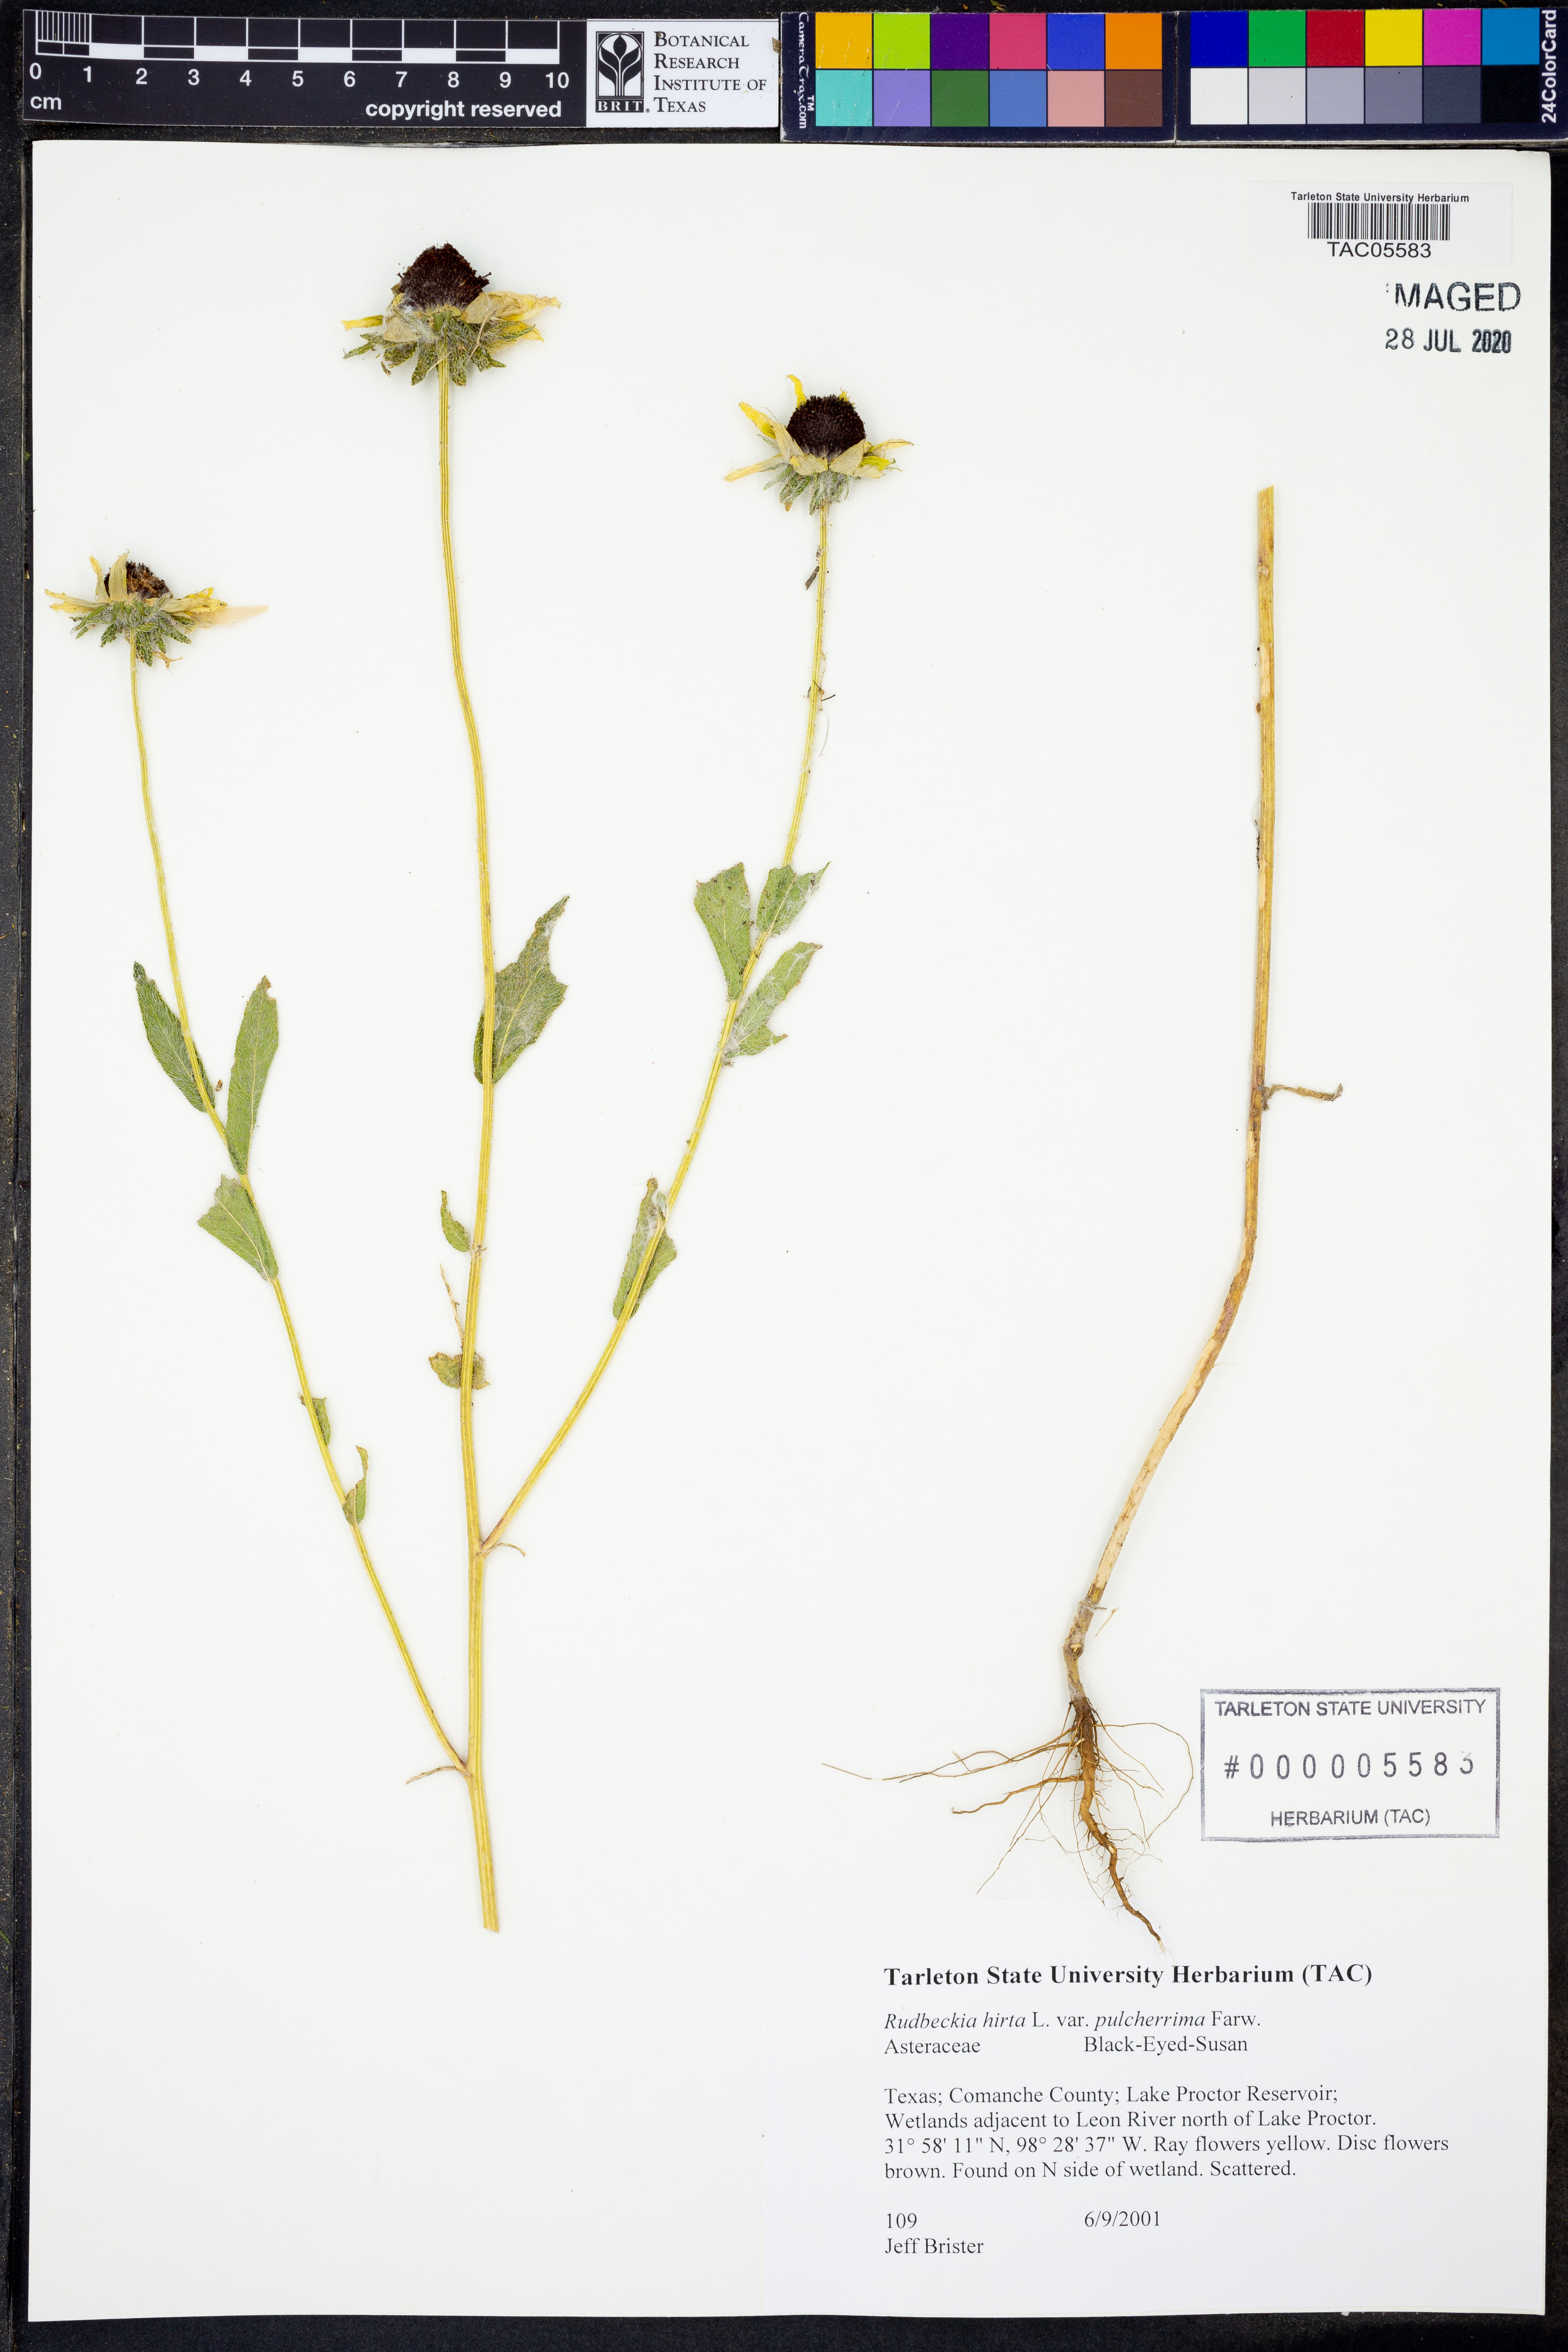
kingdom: Plantae
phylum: Tracheophyta
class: Magnoliopsida
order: Asterales
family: Asteraceae
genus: Rudbeckia
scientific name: Rudbeckia hirta
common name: Black-eyed-susan
